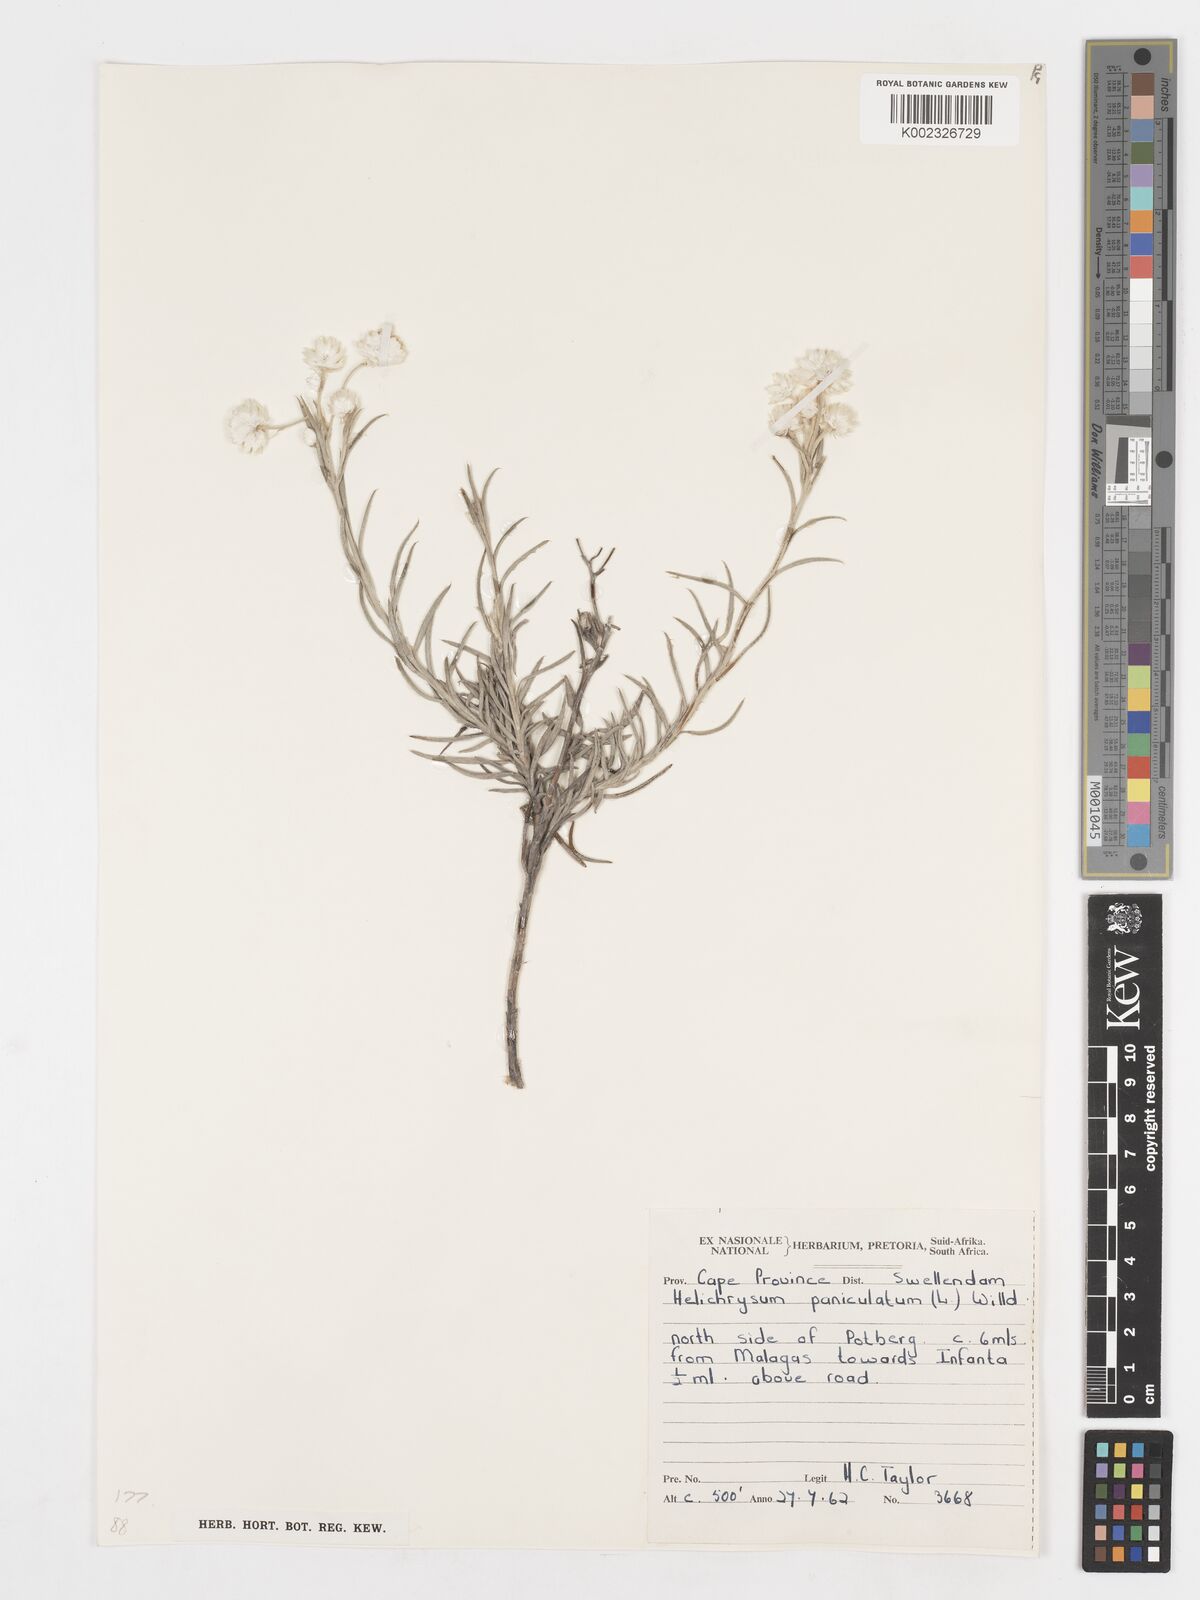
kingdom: Plantae
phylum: Tracheophyta
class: Magnoliopsida
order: Asterales
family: Asteraceae
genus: Achyranthemum
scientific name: Achyranthemum paniculatum
